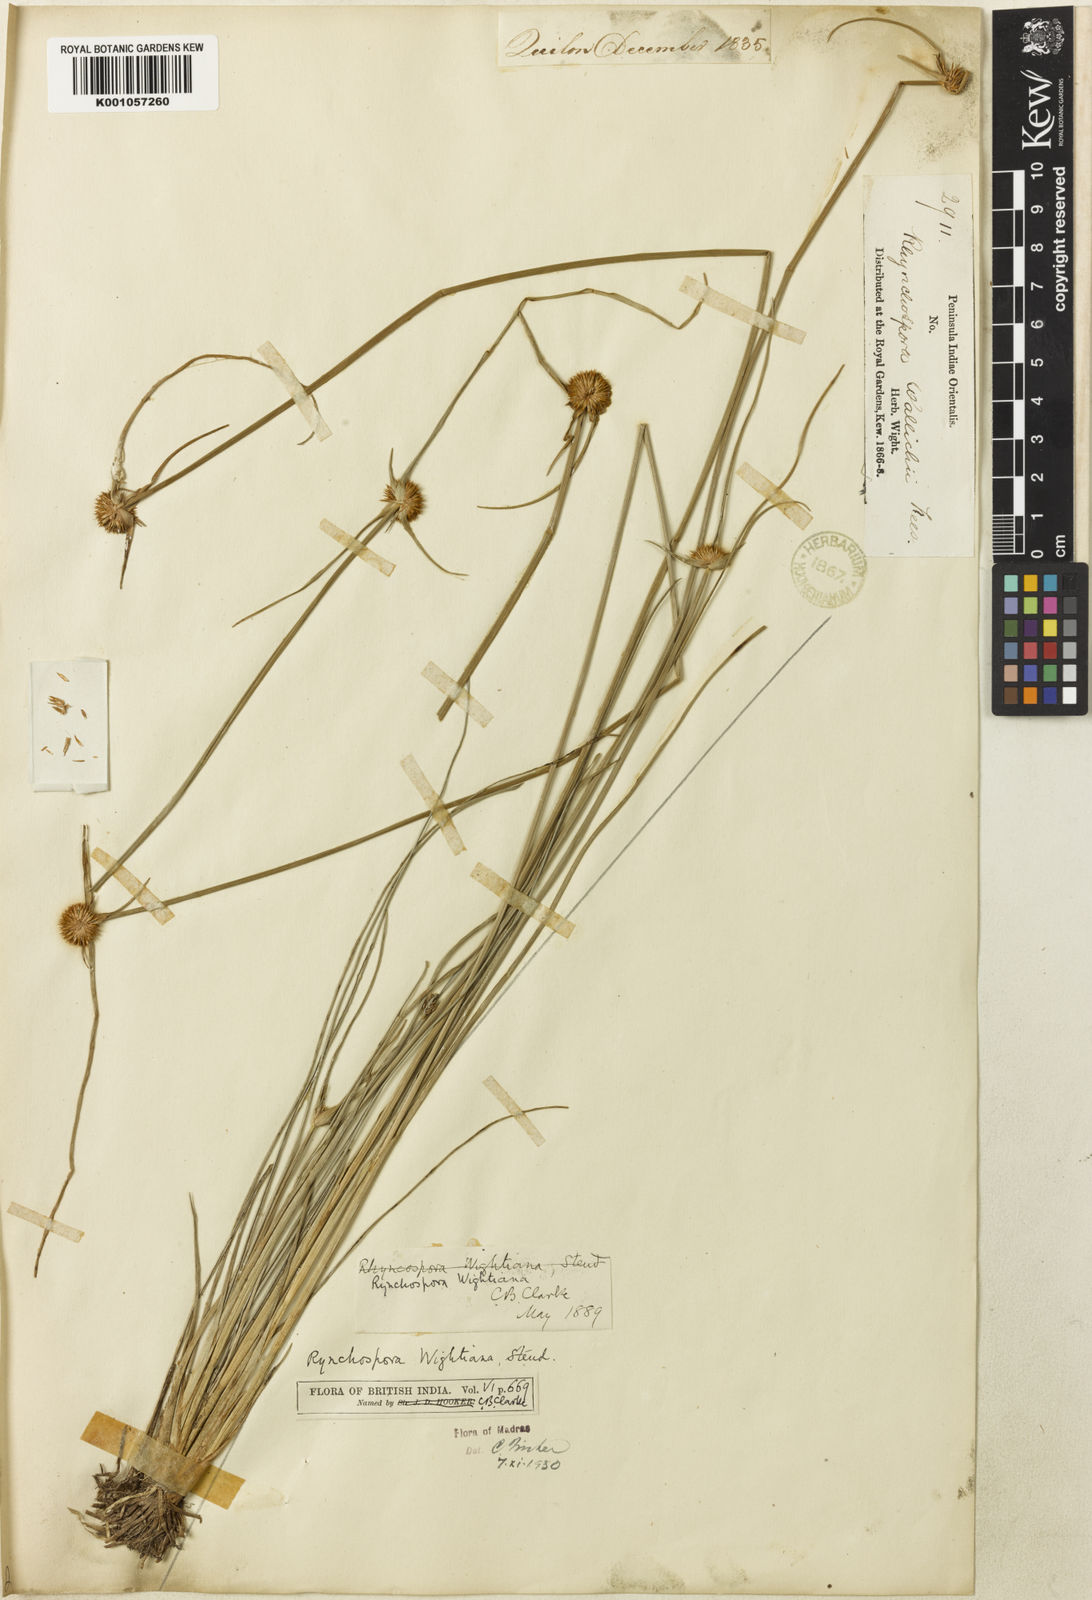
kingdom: Plantae
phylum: Tracheophyta
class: Liliopsida
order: Poales
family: Cyperaceae
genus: Rhynchospora
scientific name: Rhynchospora wightiana
